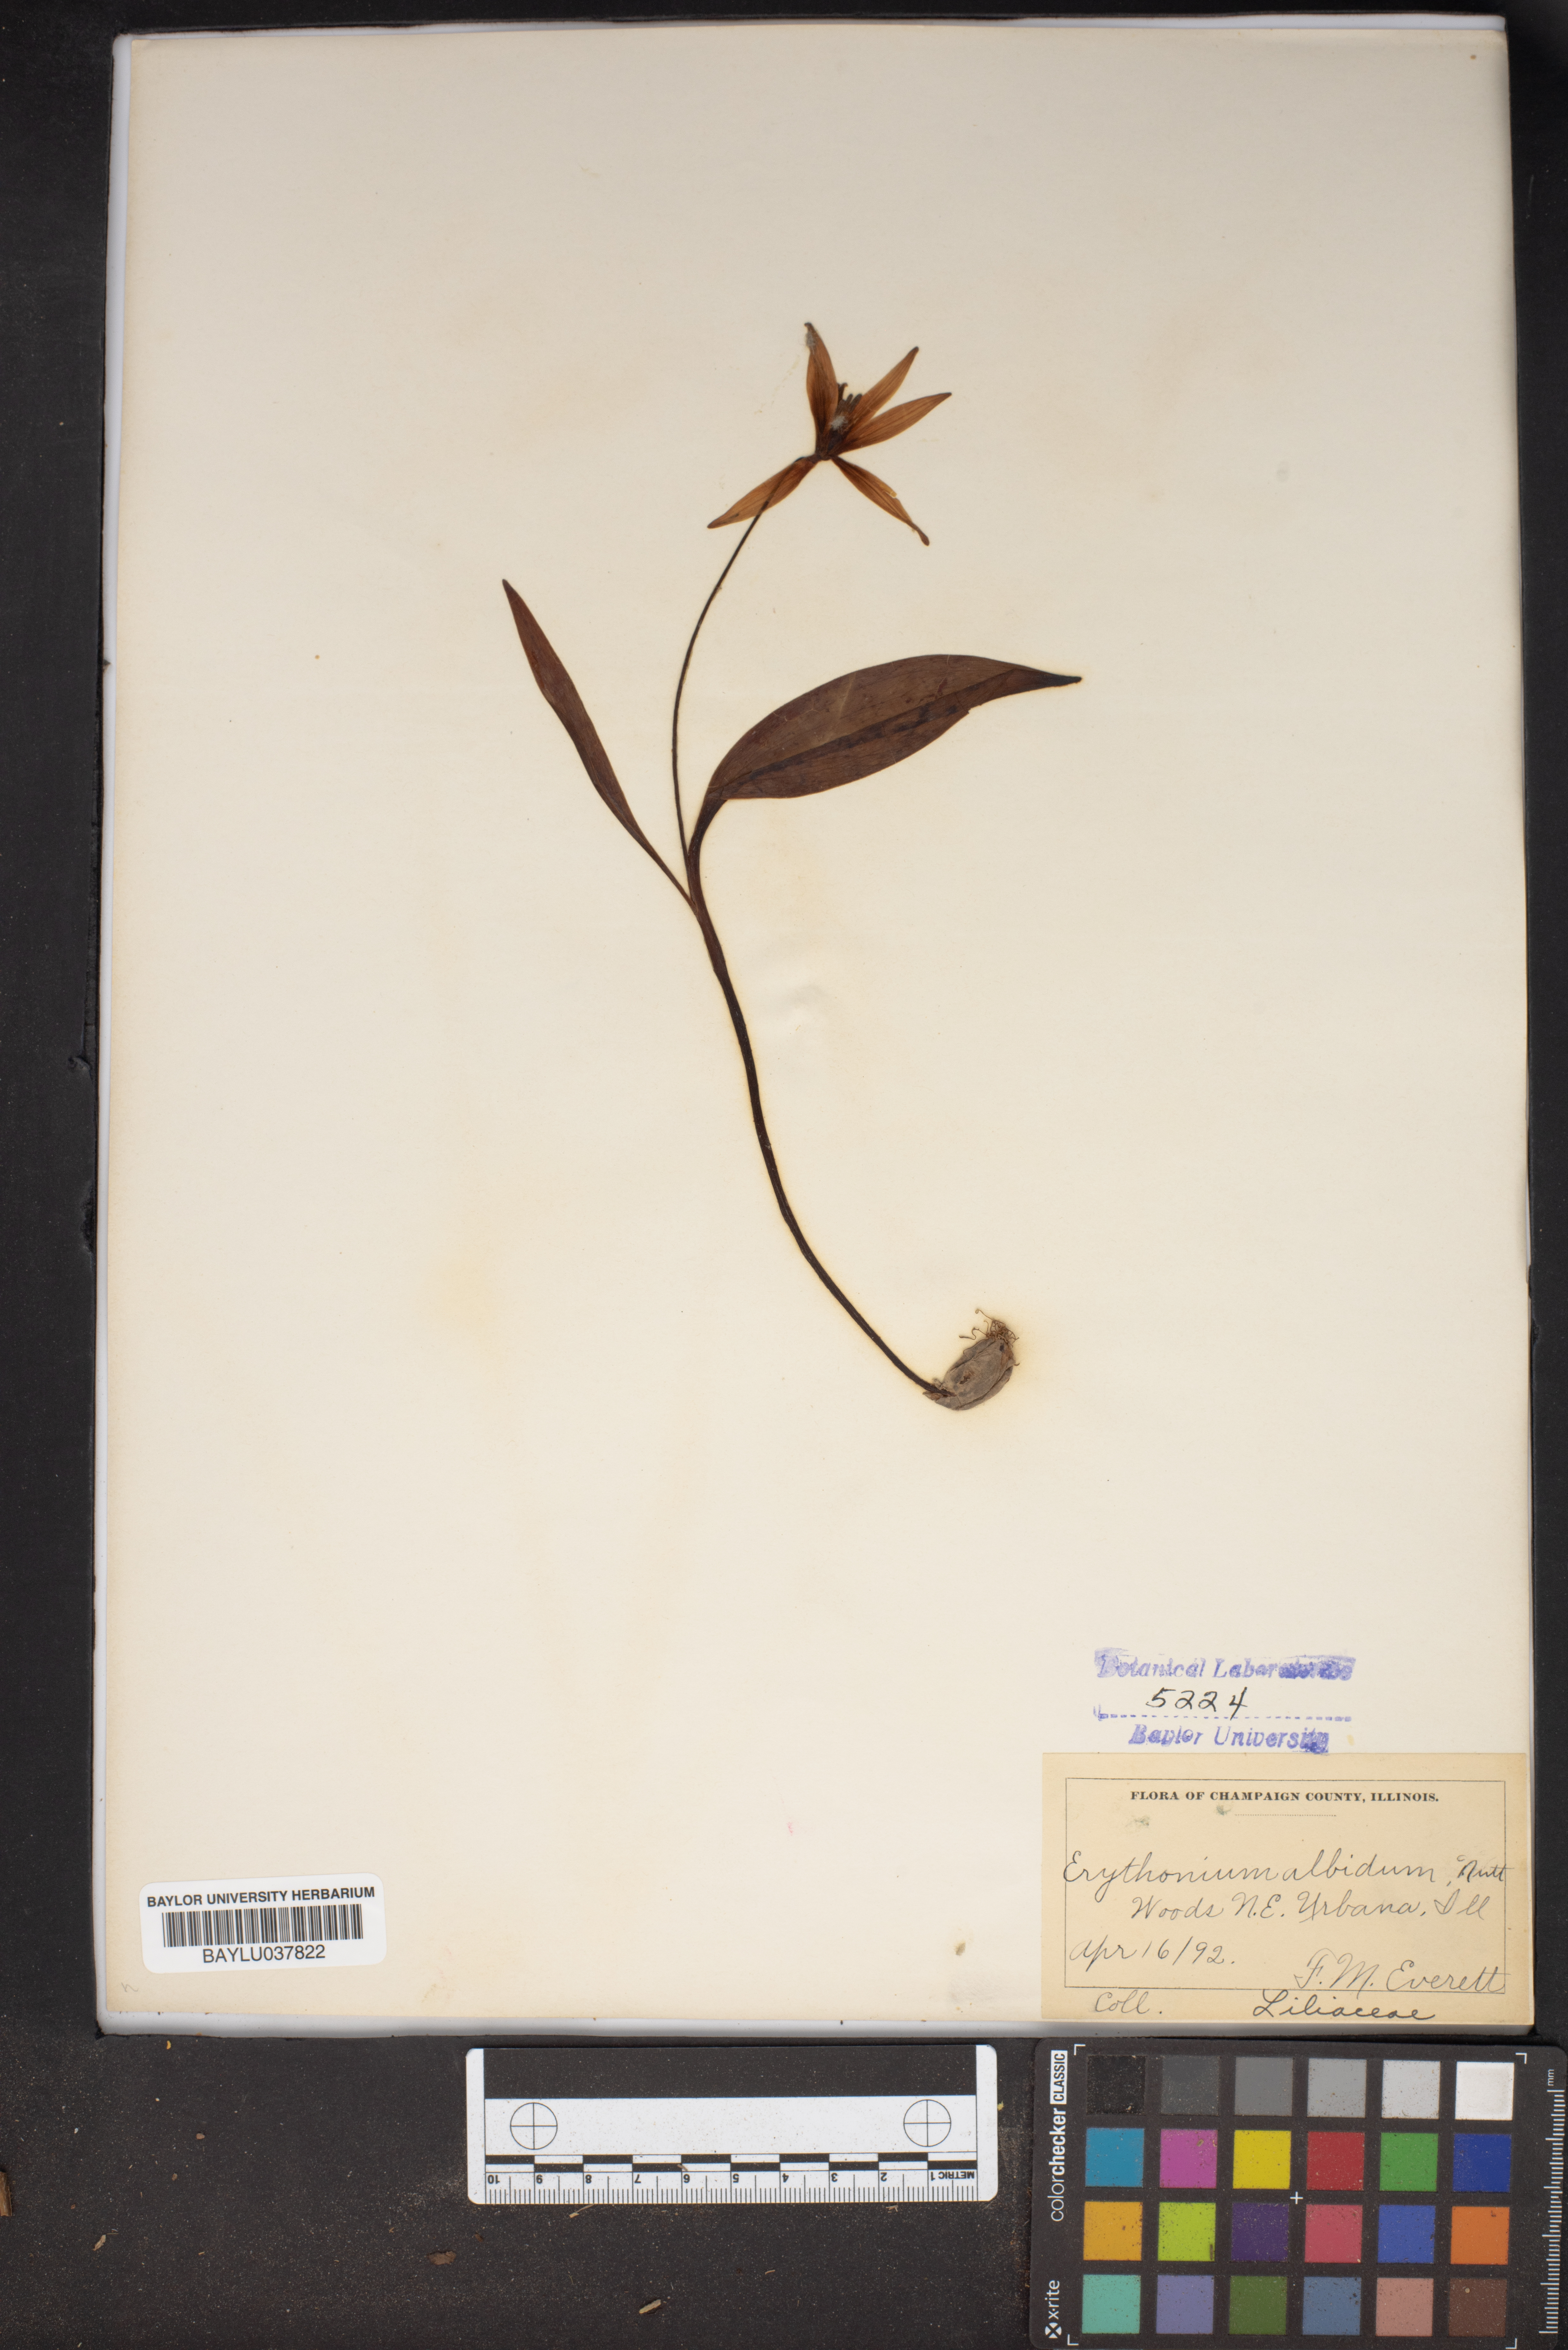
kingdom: Plantae
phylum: Tracheophyta
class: Liliopsida
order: Liliales
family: Liliaceae
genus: Erythronium
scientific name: Erythronium albidum
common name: White trout-lily
